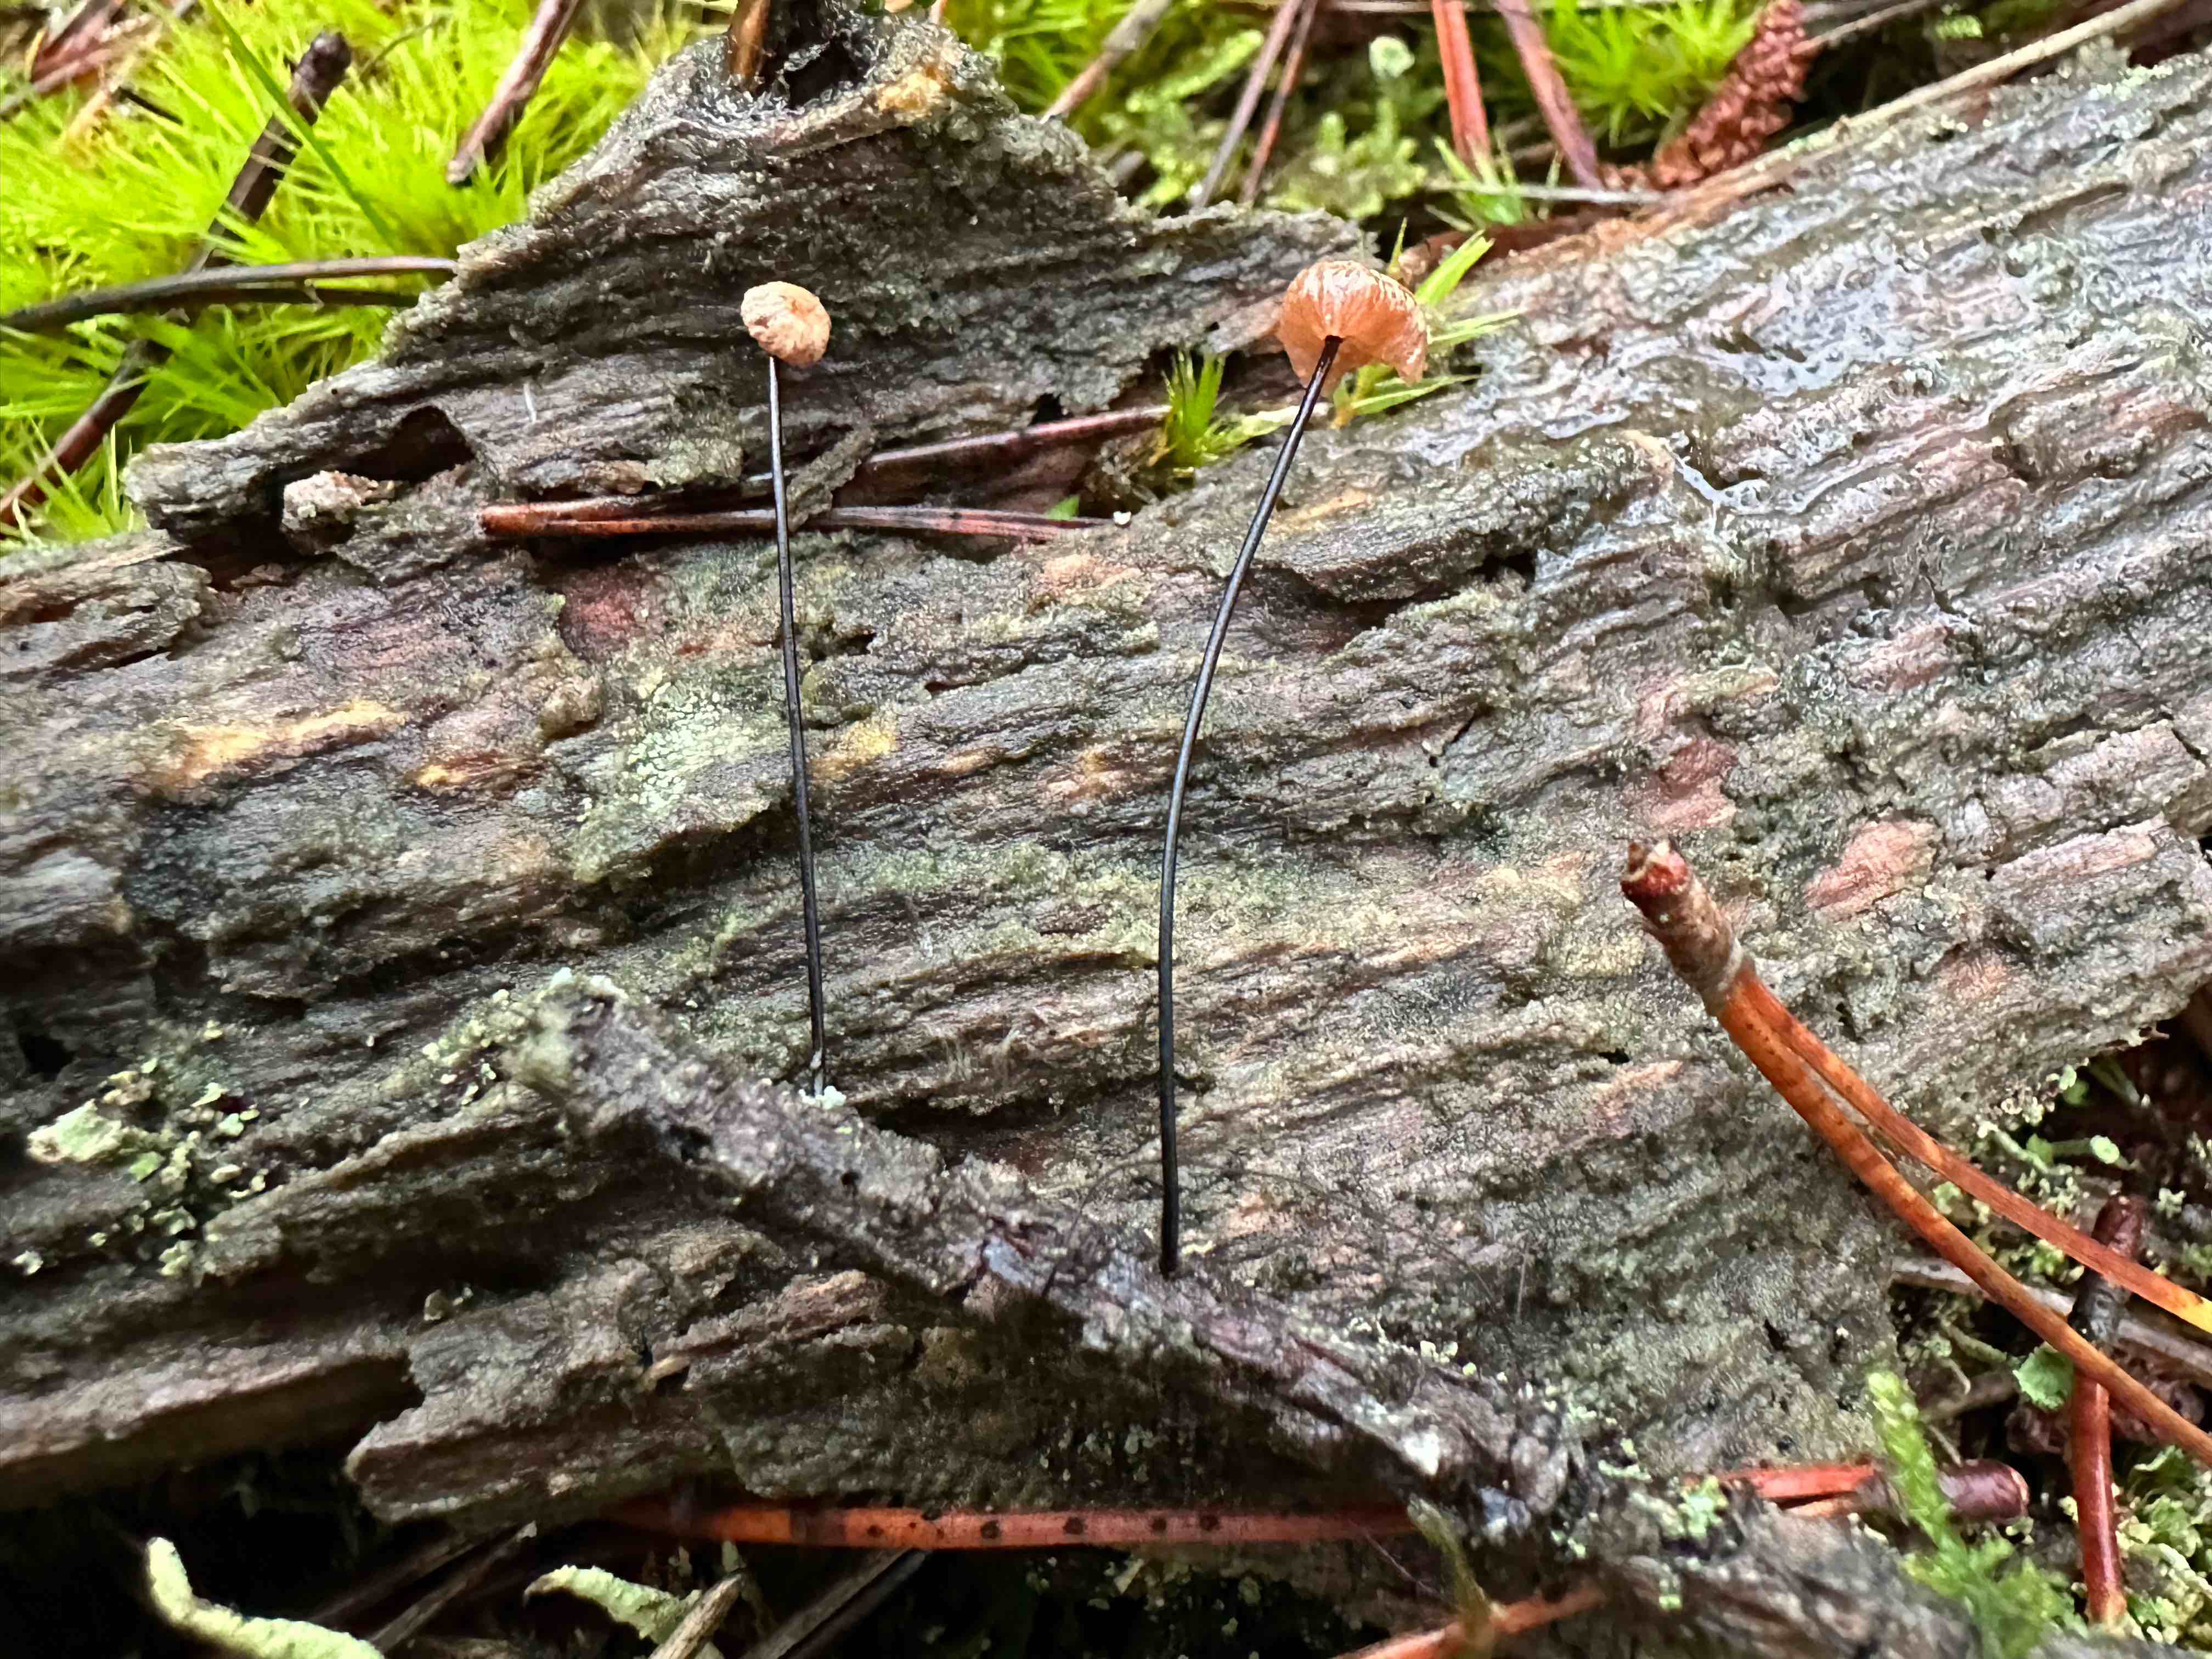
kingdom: Fungi
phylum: Basidiomycota
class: Agaricomycetes
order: Agaricales
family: Omphalotaceae
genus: Gymnopus
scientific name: Gymnopus androsaceus
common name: trådstokket fladhat
